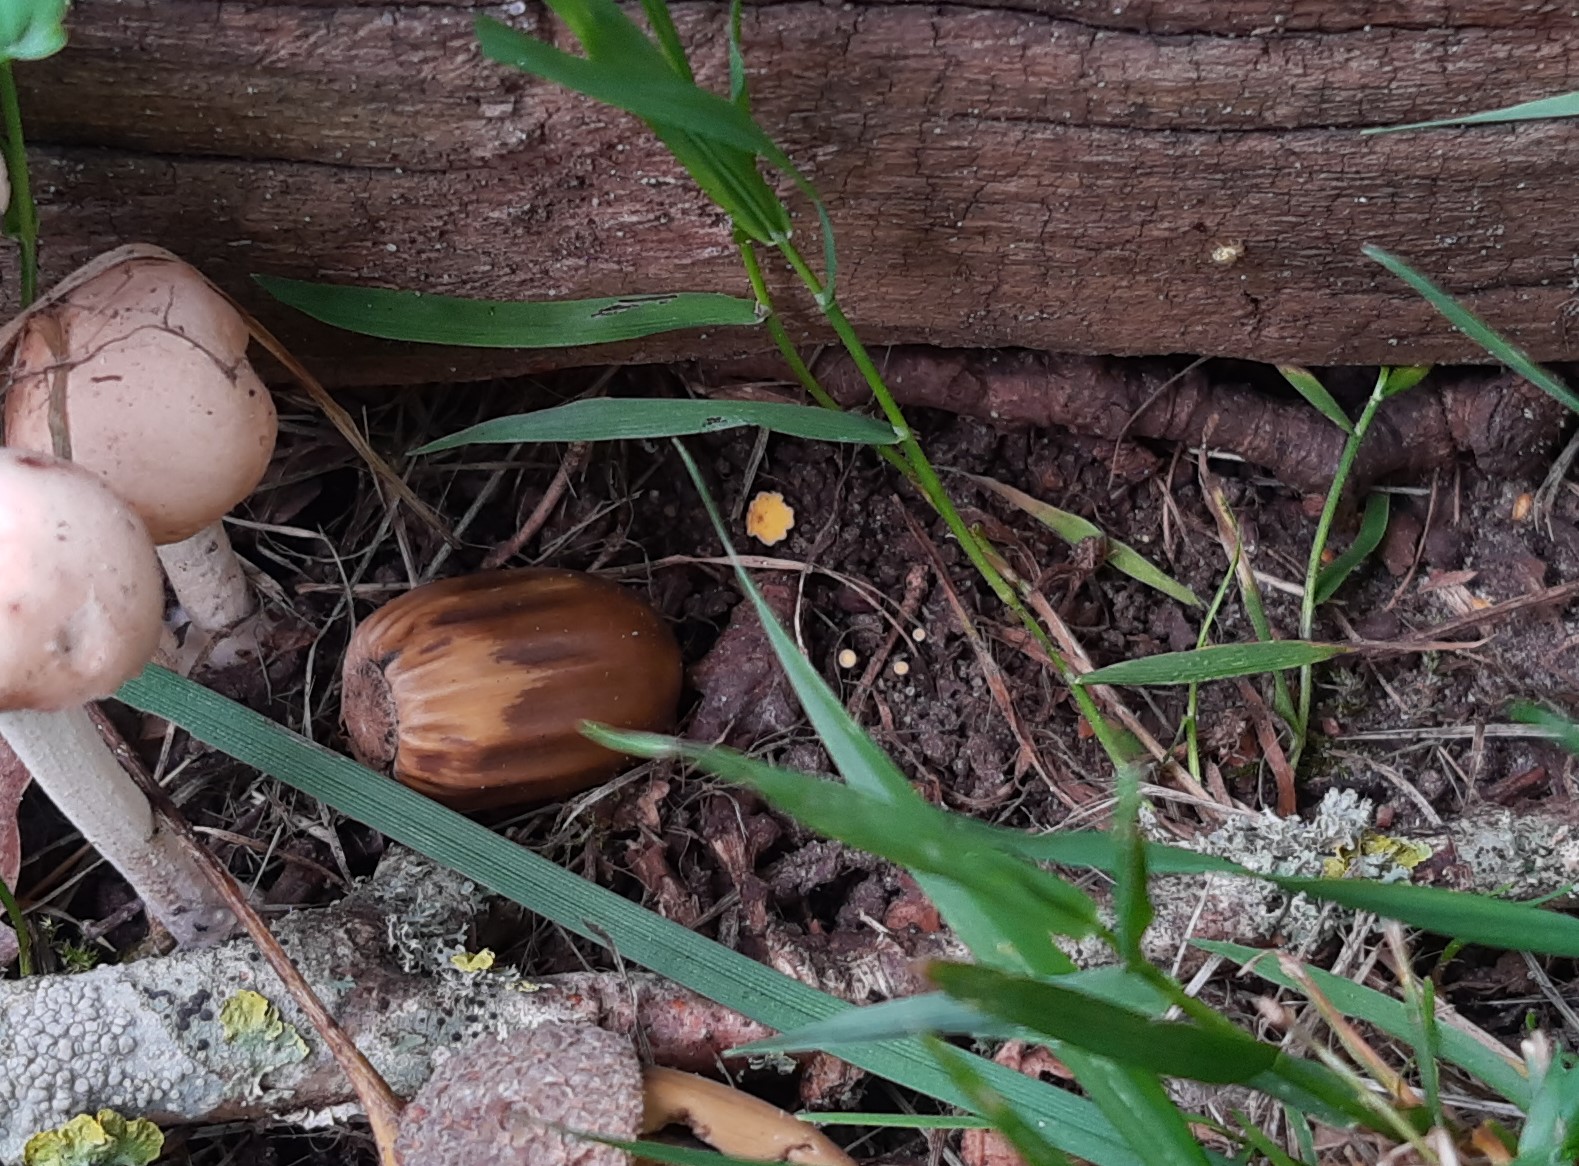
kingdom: Fungi
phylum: Ascomycota
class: Leotiomycetes
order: Helotiales
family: Helotiaceae
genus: Hymenoscyphus
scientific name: Hymenoscyphus
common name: stilkskive
